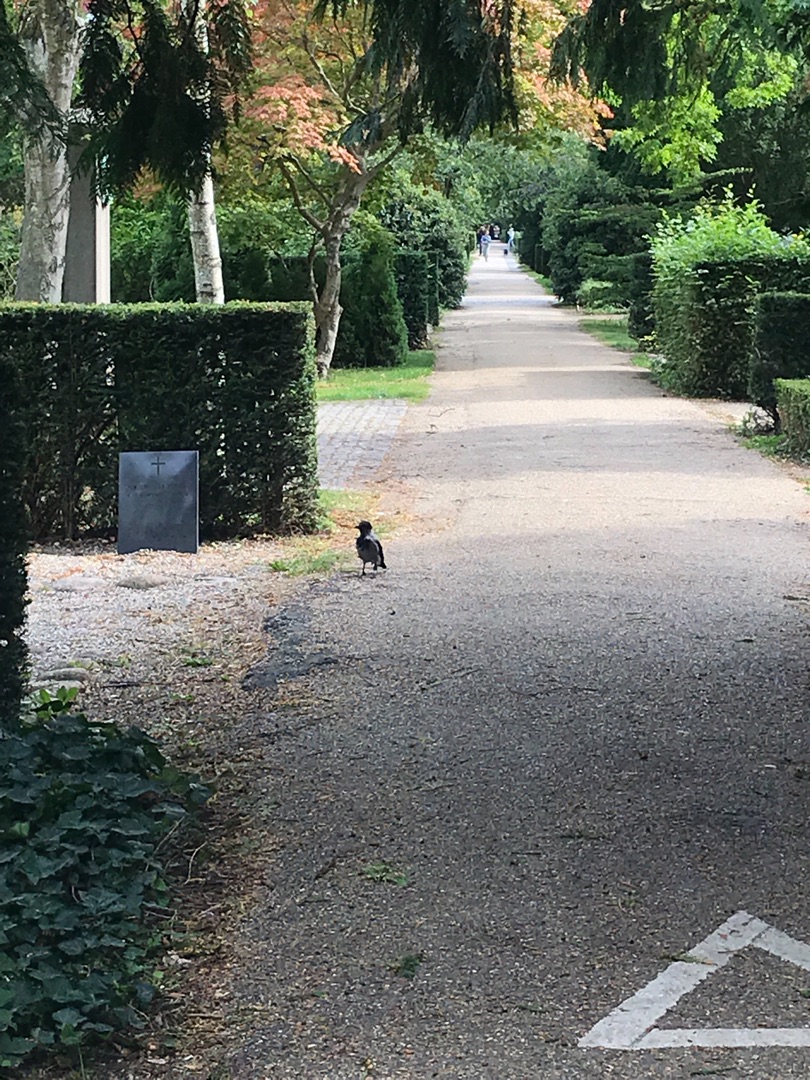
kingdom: Animalia
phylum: Chordata
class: Aves
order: Passeriformes
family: Corvidae
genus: Corvus
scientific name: Corvus cornix
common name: Gråkrage
